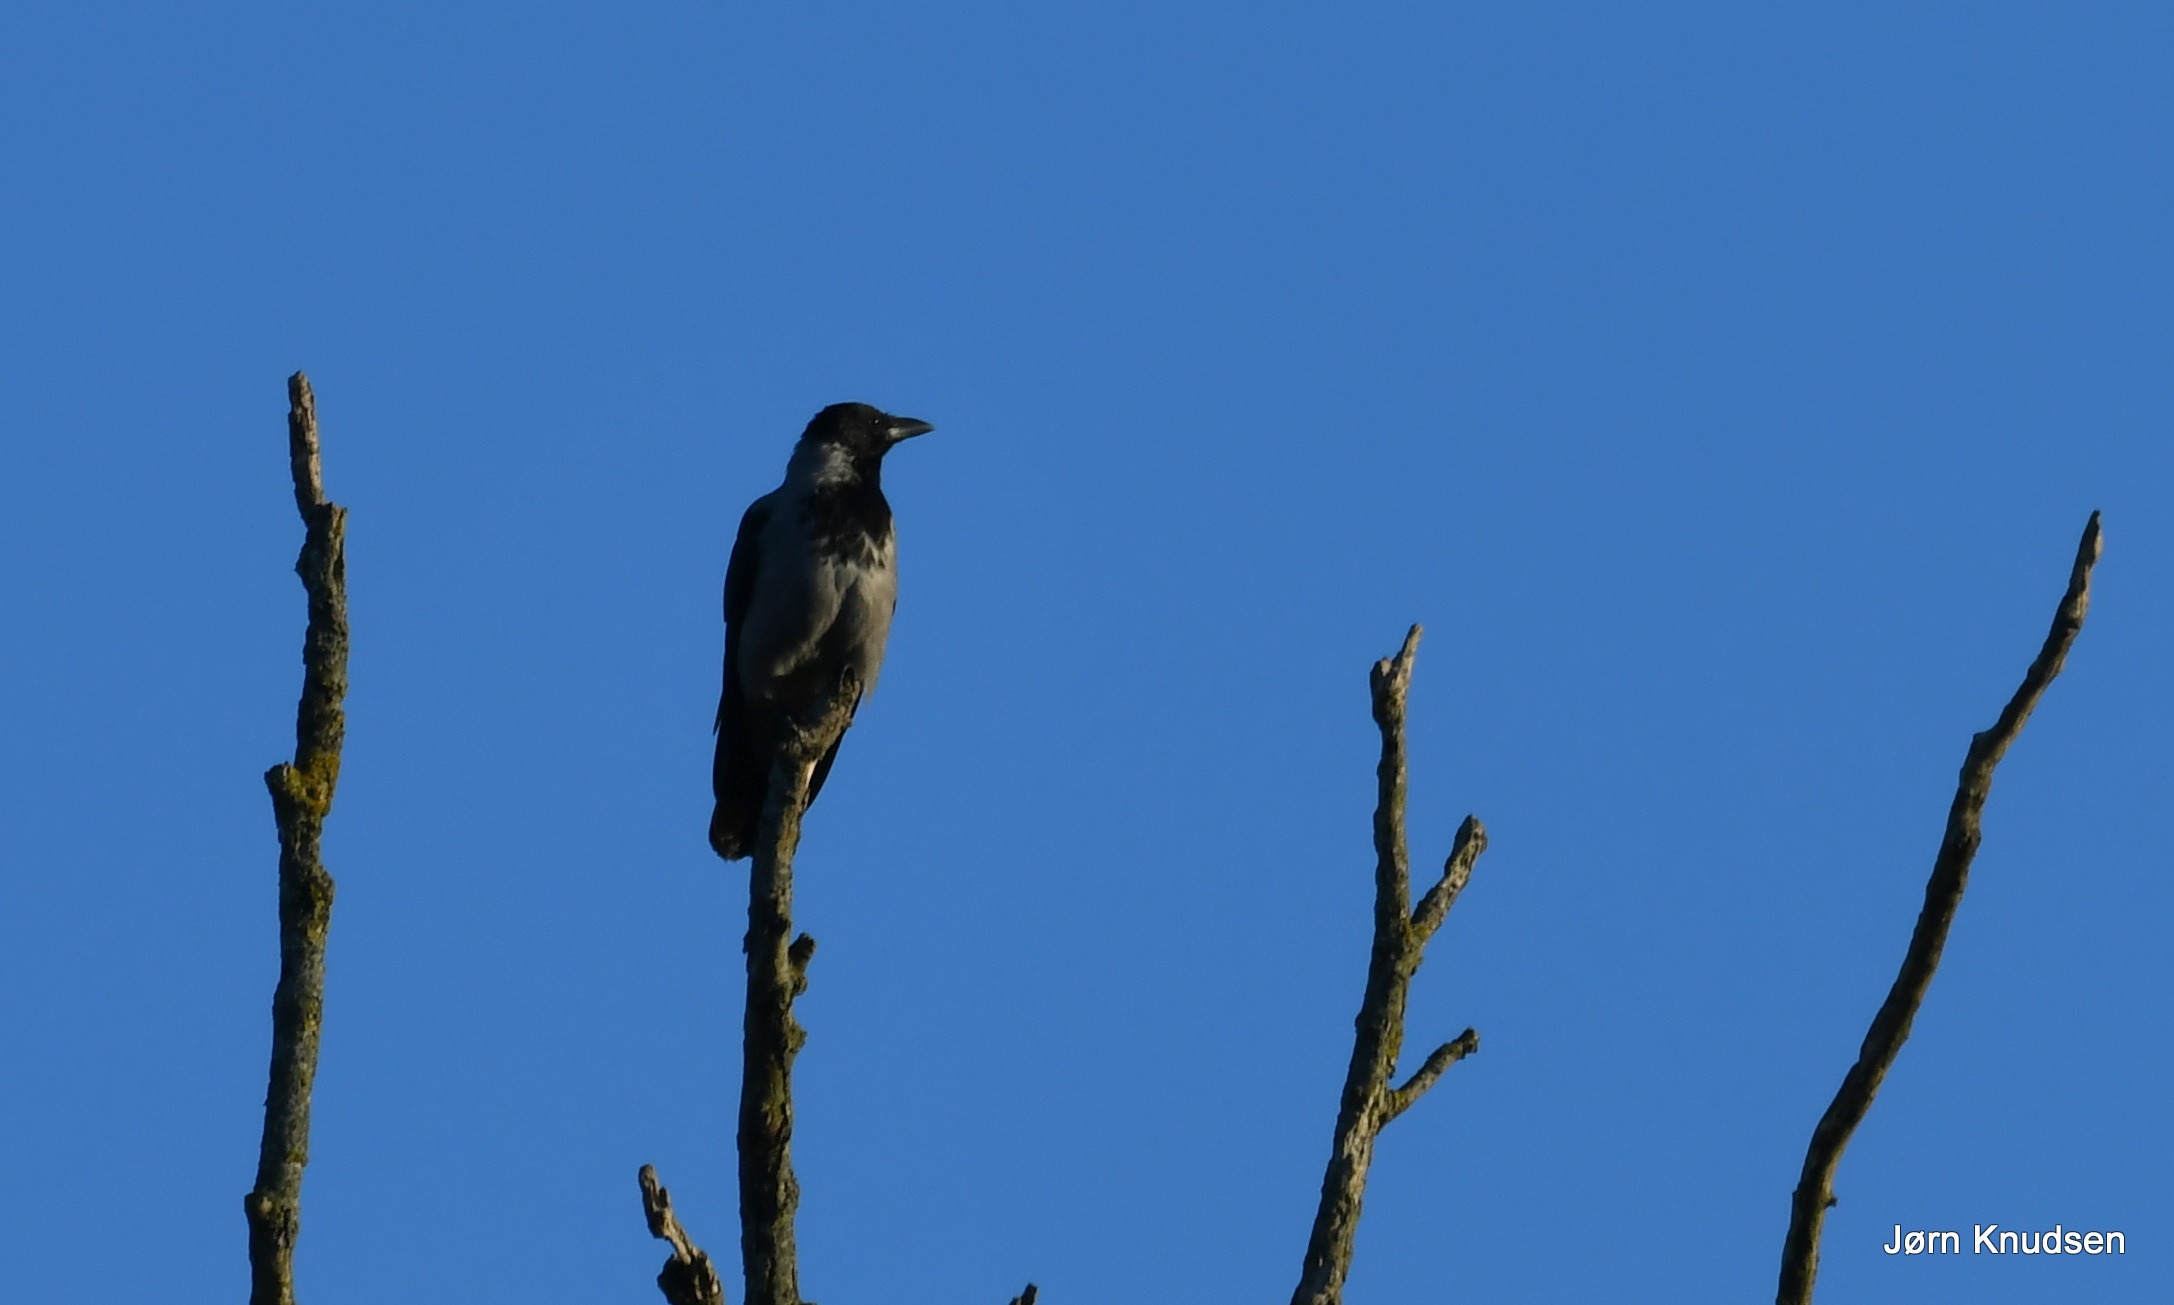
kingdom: Animalia
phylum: Chordata
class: Aves
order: Passeriformes
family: Corvidae
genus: Corvus
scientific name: Corvus cornix
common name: Gråkrage
